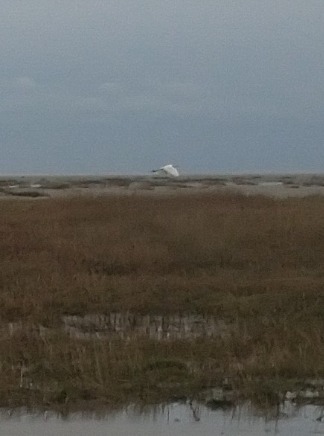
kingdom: Animalia
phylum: Chordata
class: Aves
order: Pelecaniformes
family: Ardeidae
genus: Ardea
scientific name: Ardea alba
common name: Sølvhejre
